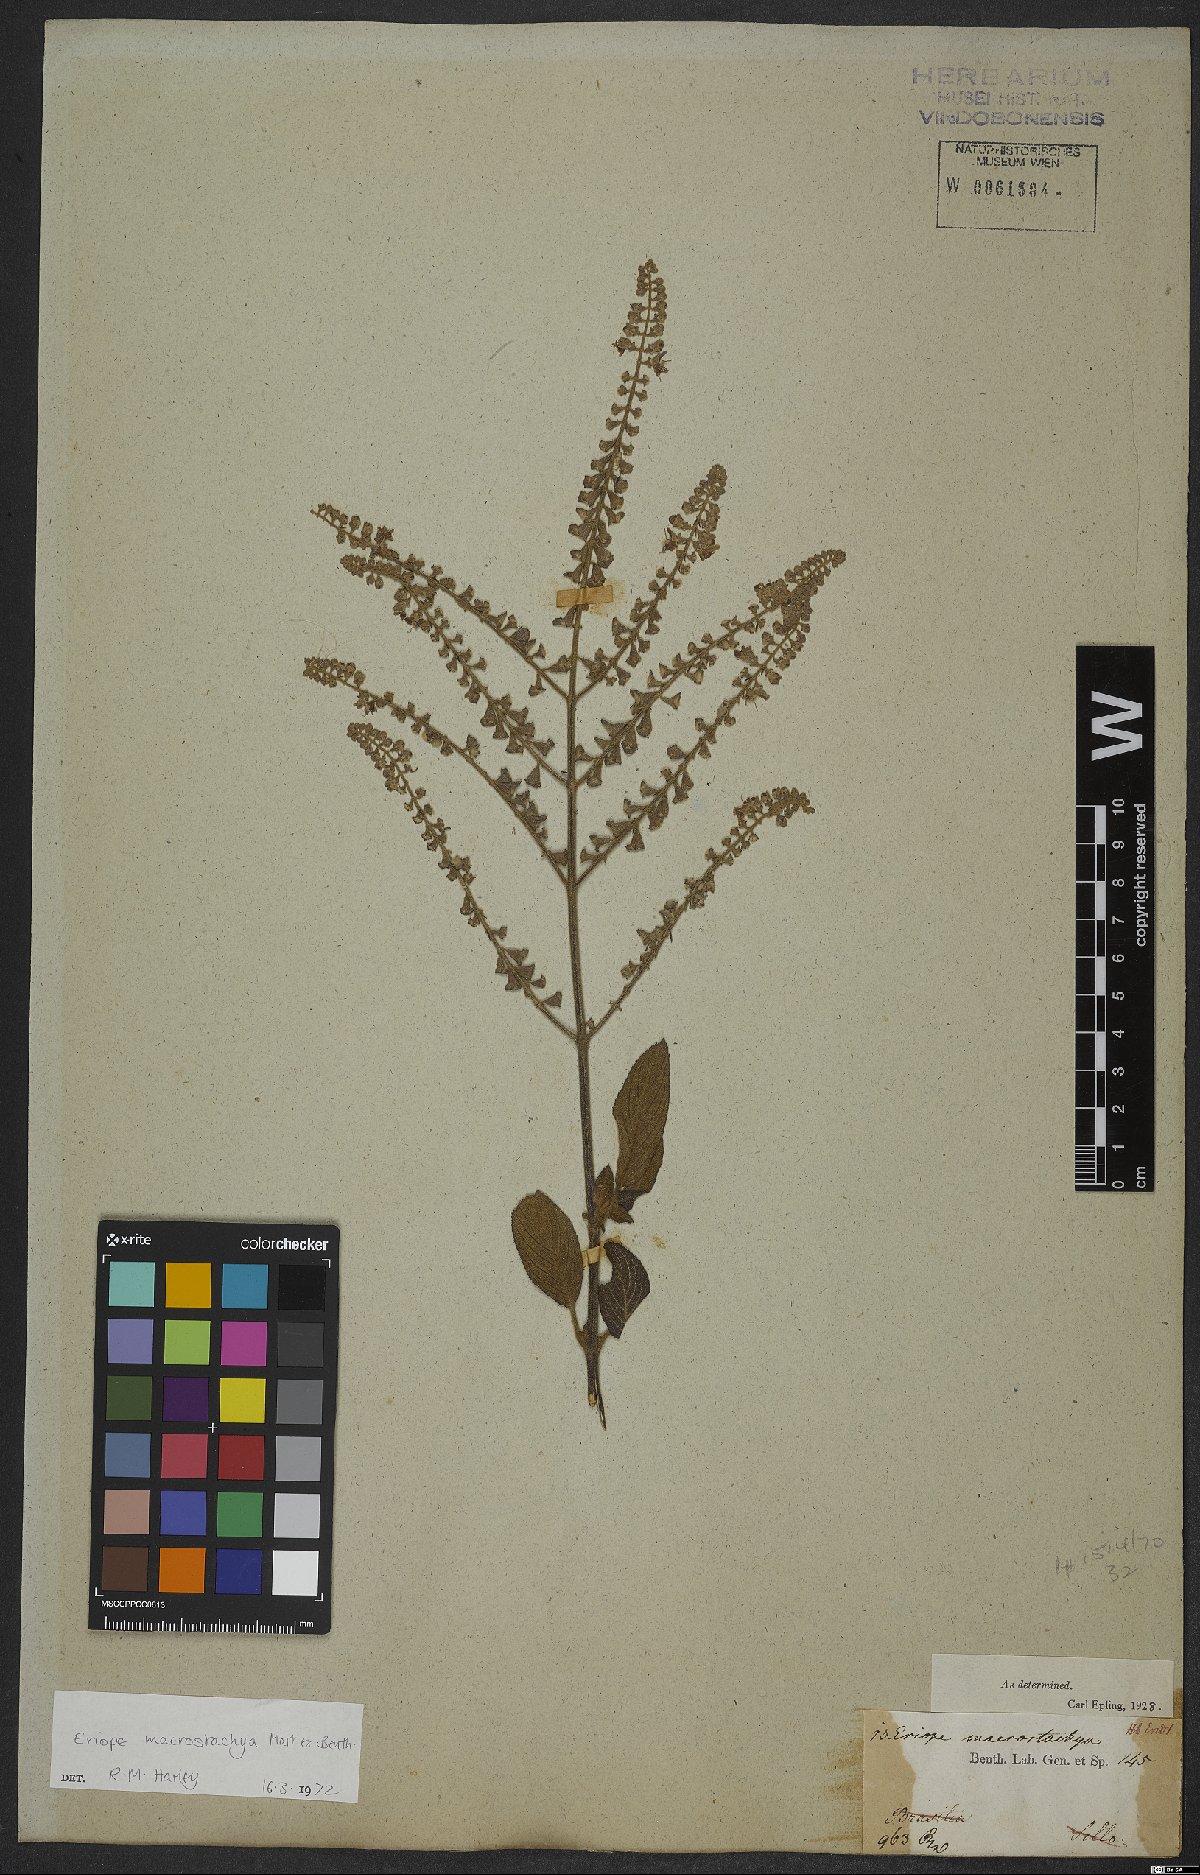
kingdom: Plantae
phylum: Tracheophyta
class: Magnoliopsida
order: Lamiales
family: Lamiaceae
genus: Eriope
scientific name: Eriope macrostachya
